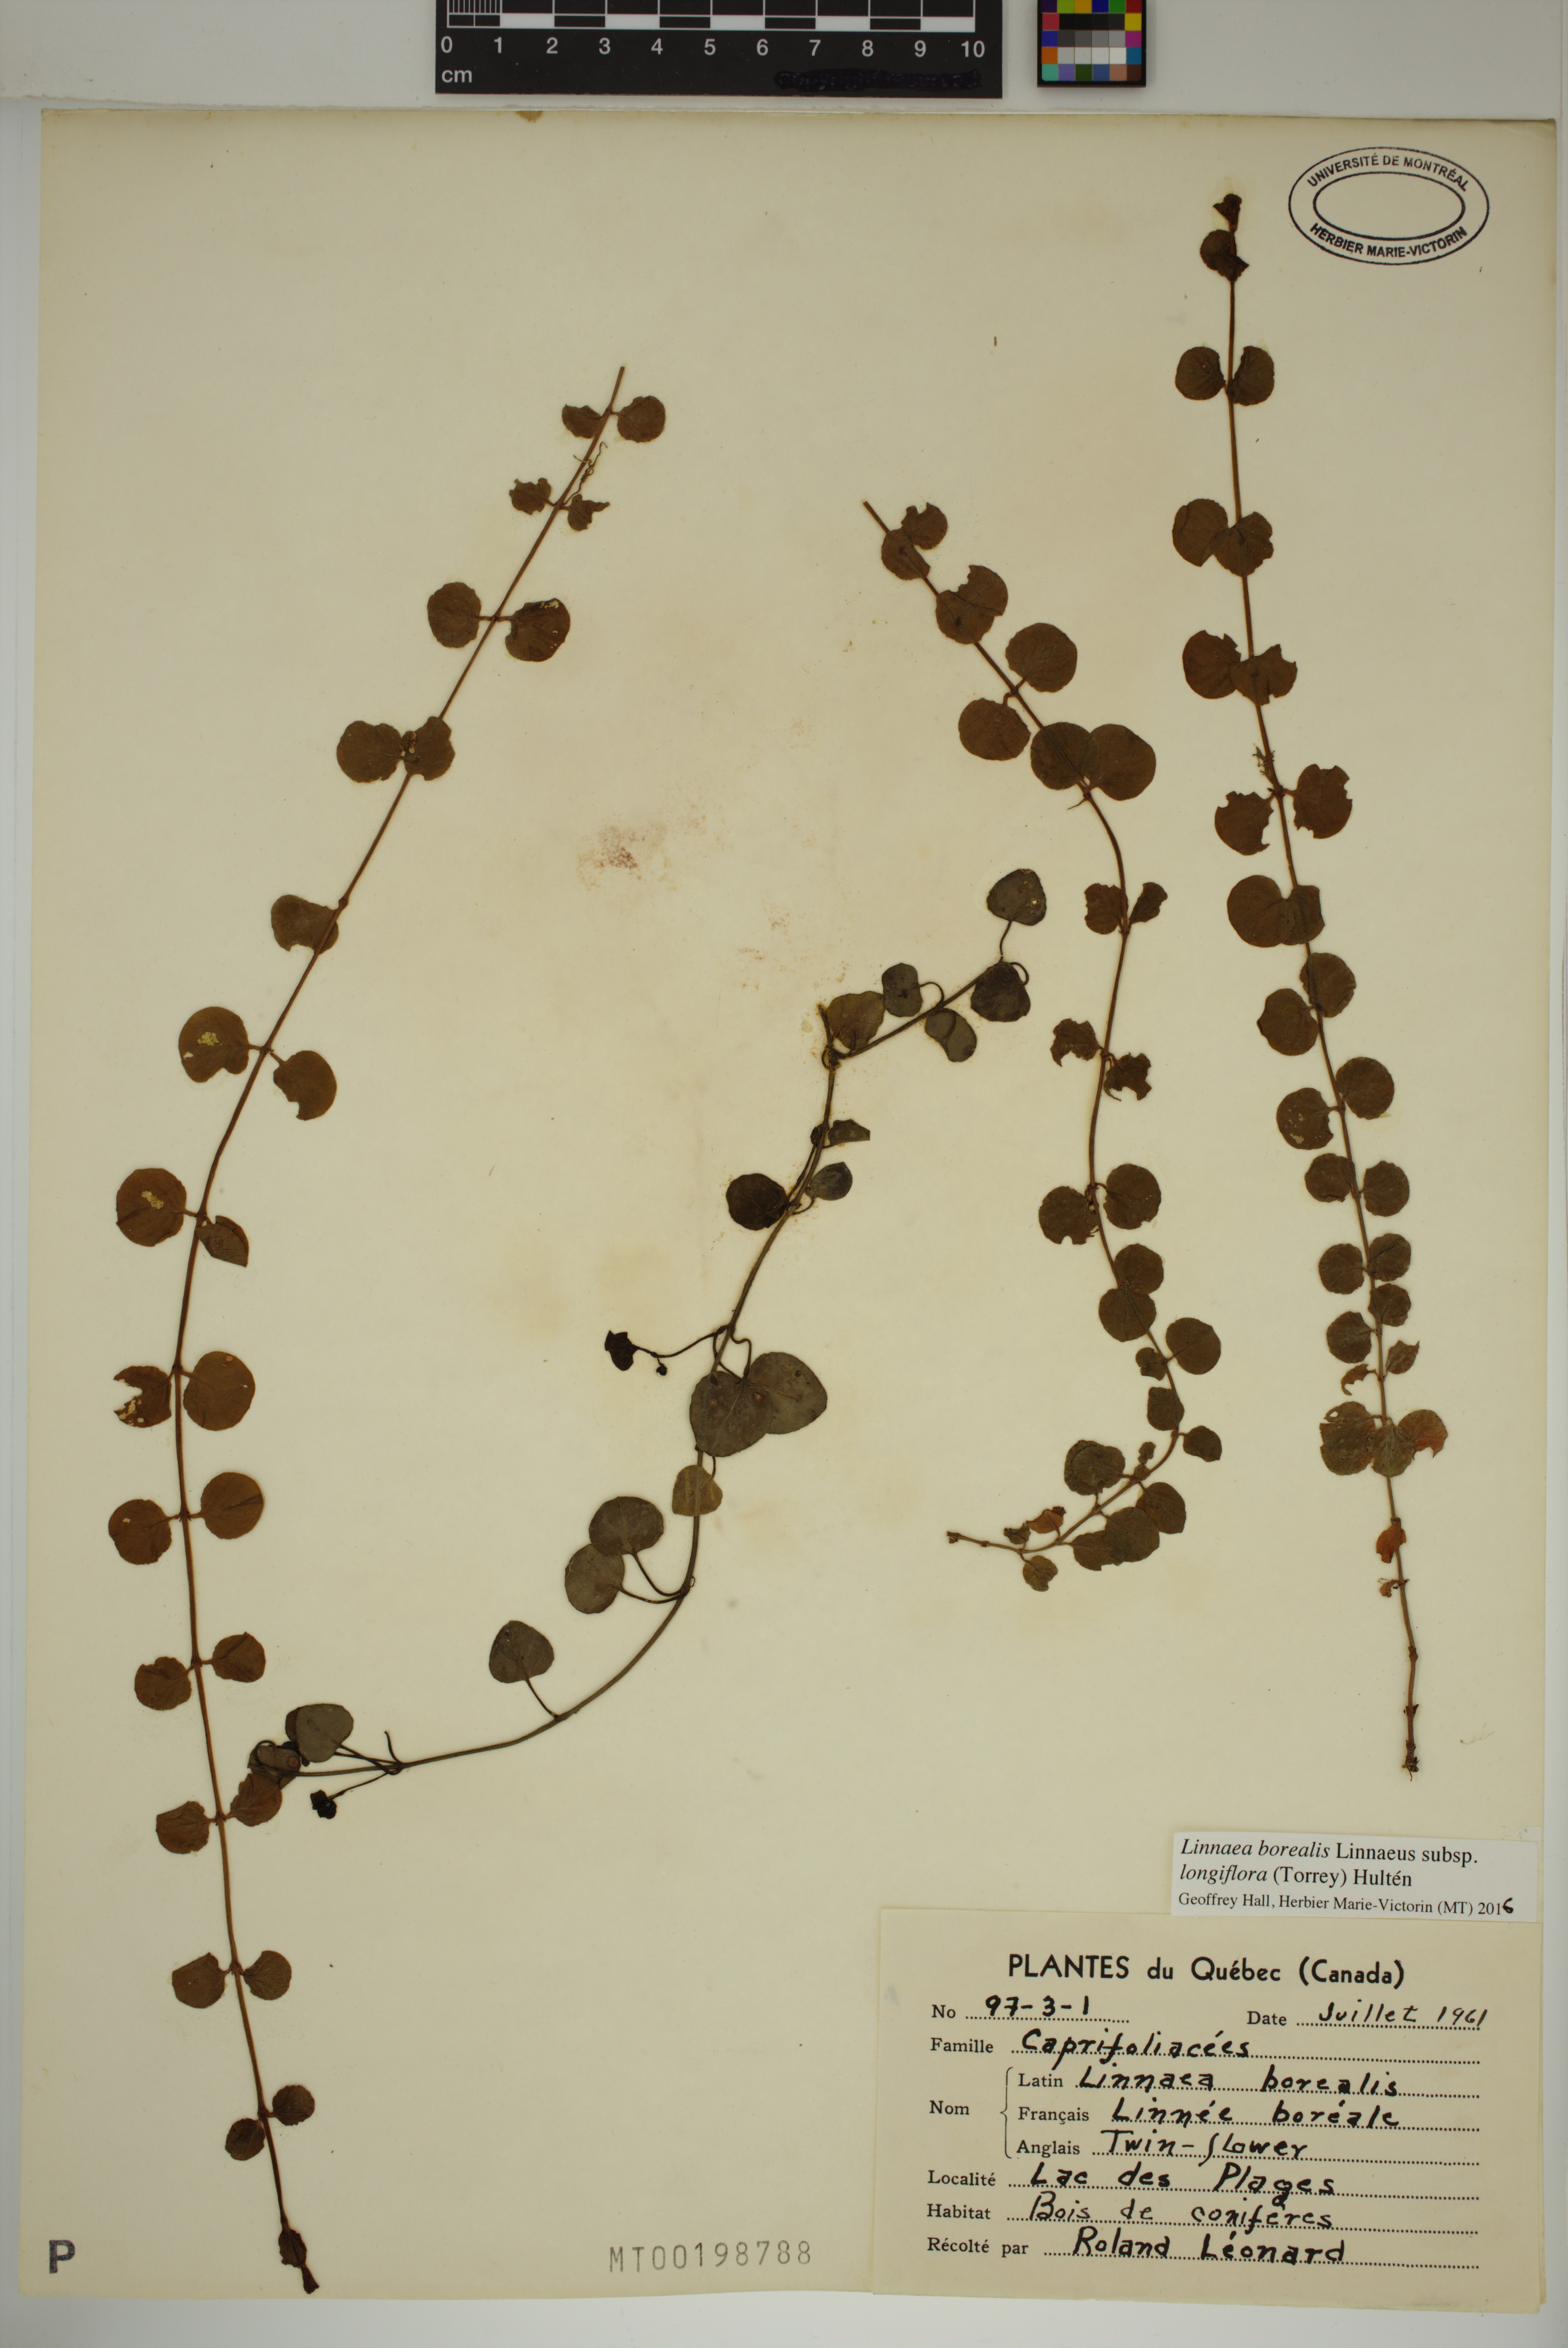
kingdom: Plantae
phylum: Tracheophyta
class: Magnoliopsida
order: Dipsacales
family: Caprifoliaceae
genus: Linnaea
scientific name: Linnaea borealis
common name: Twinflower
